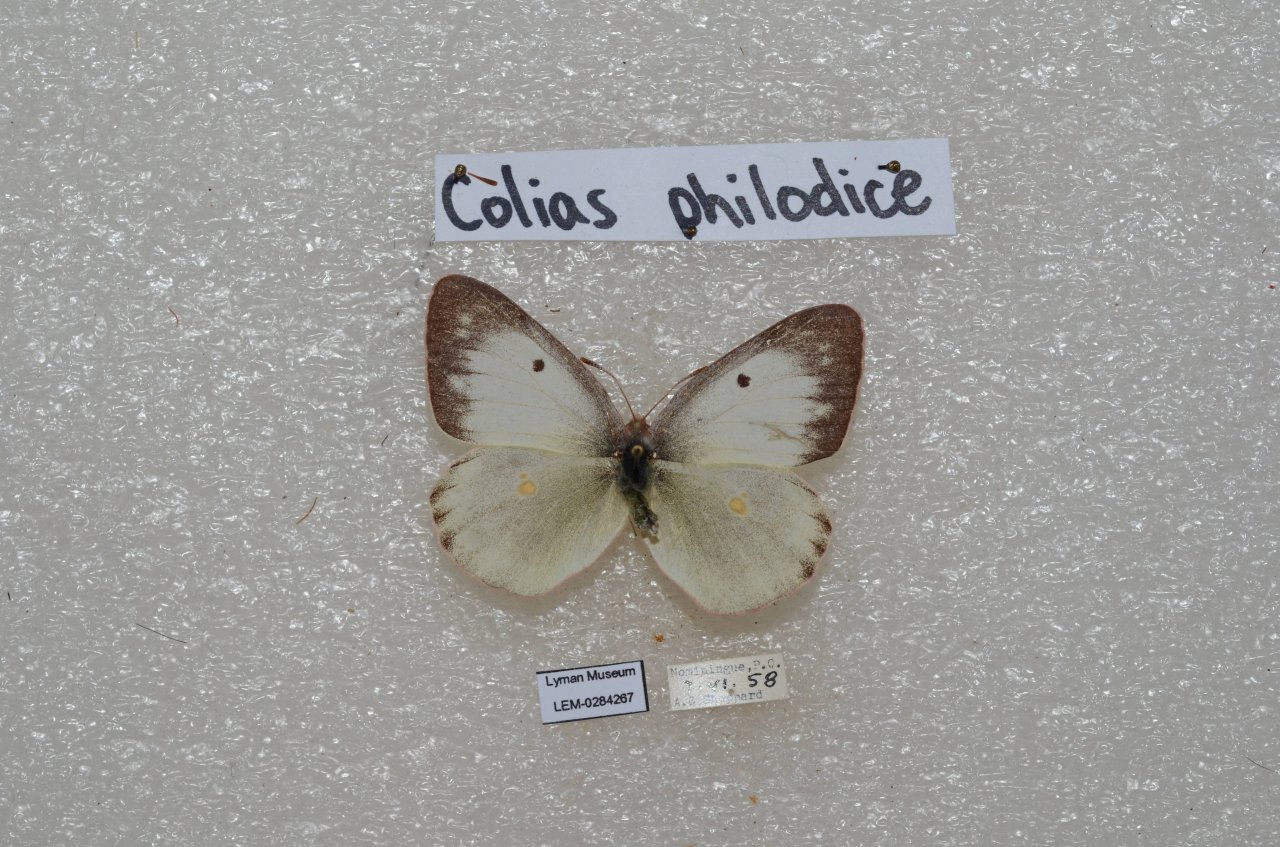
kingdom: Animalia
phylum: Arthropoda
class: Insecta
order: Lepidoptera
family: Pieridae
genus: Colias
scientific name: Colias philodice
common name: Clouded Sulphur
